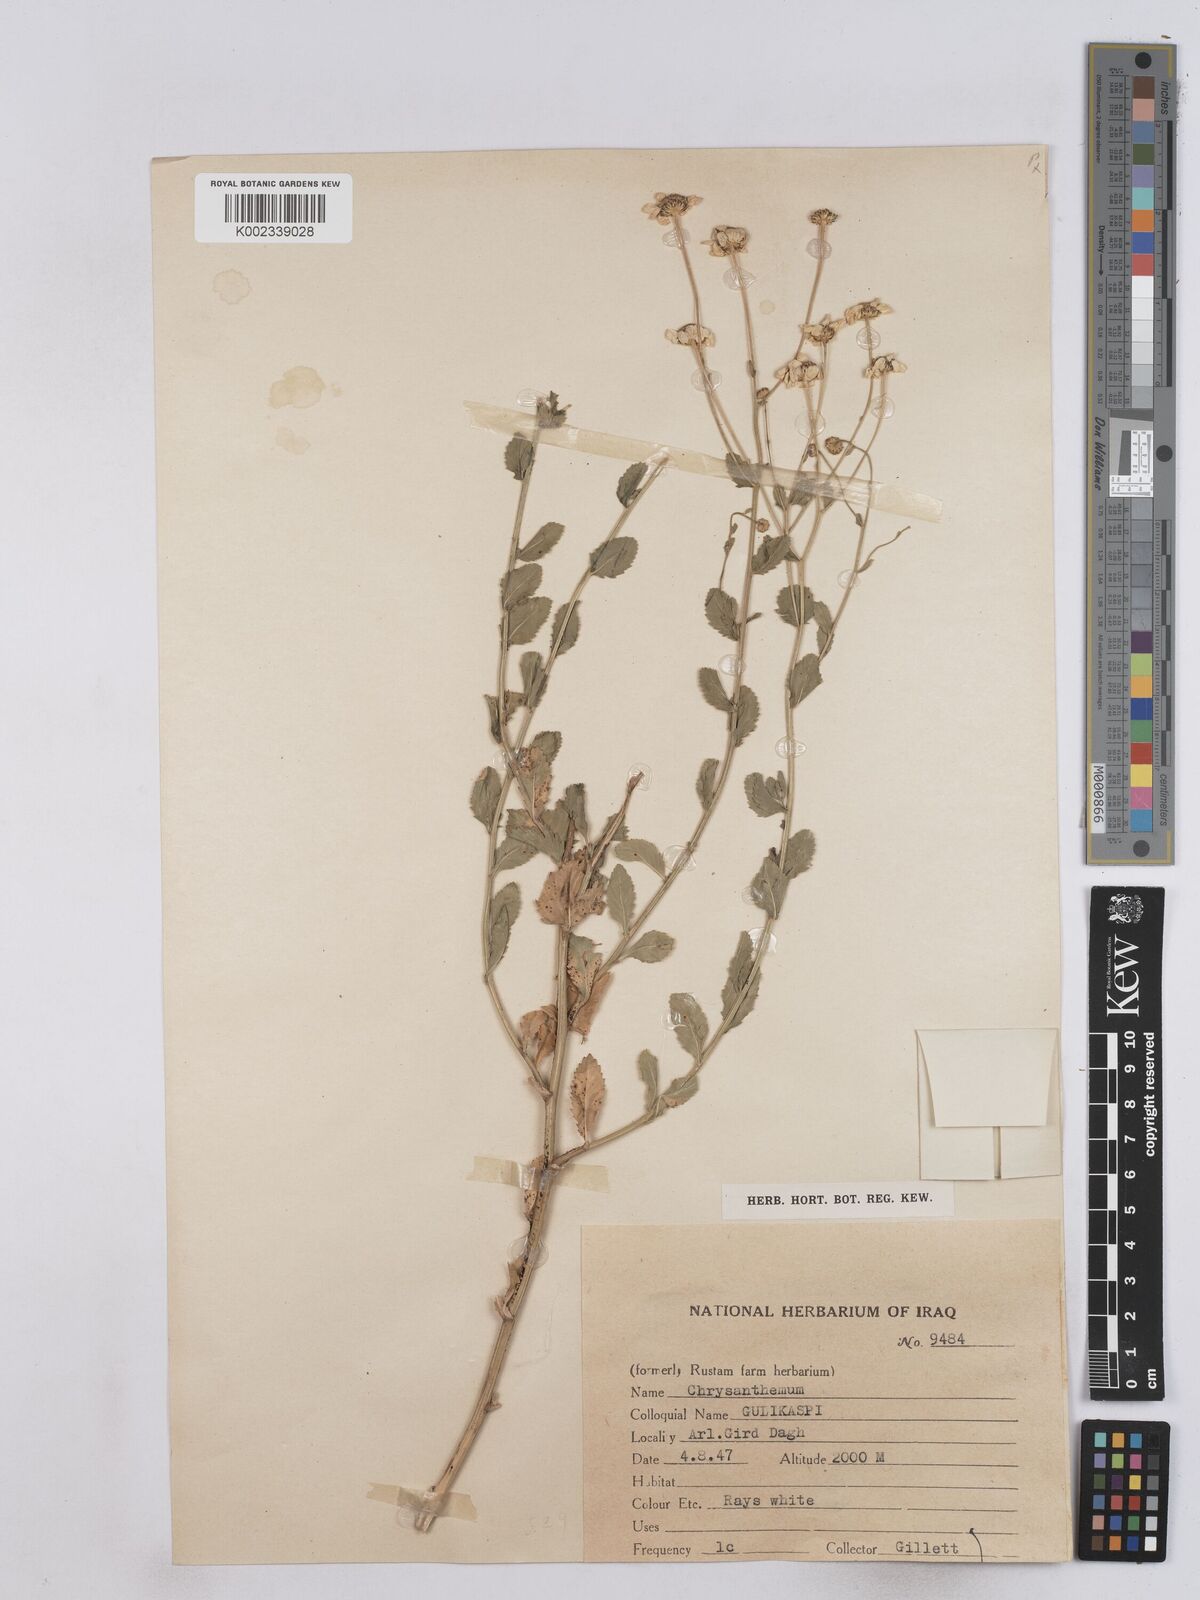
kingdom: Plantae
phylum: Tracheophyta
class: Magnoliopsida
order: Asterales
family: Asteraceae
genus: Tanacetum
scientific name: Tanacetum balsamitoides
